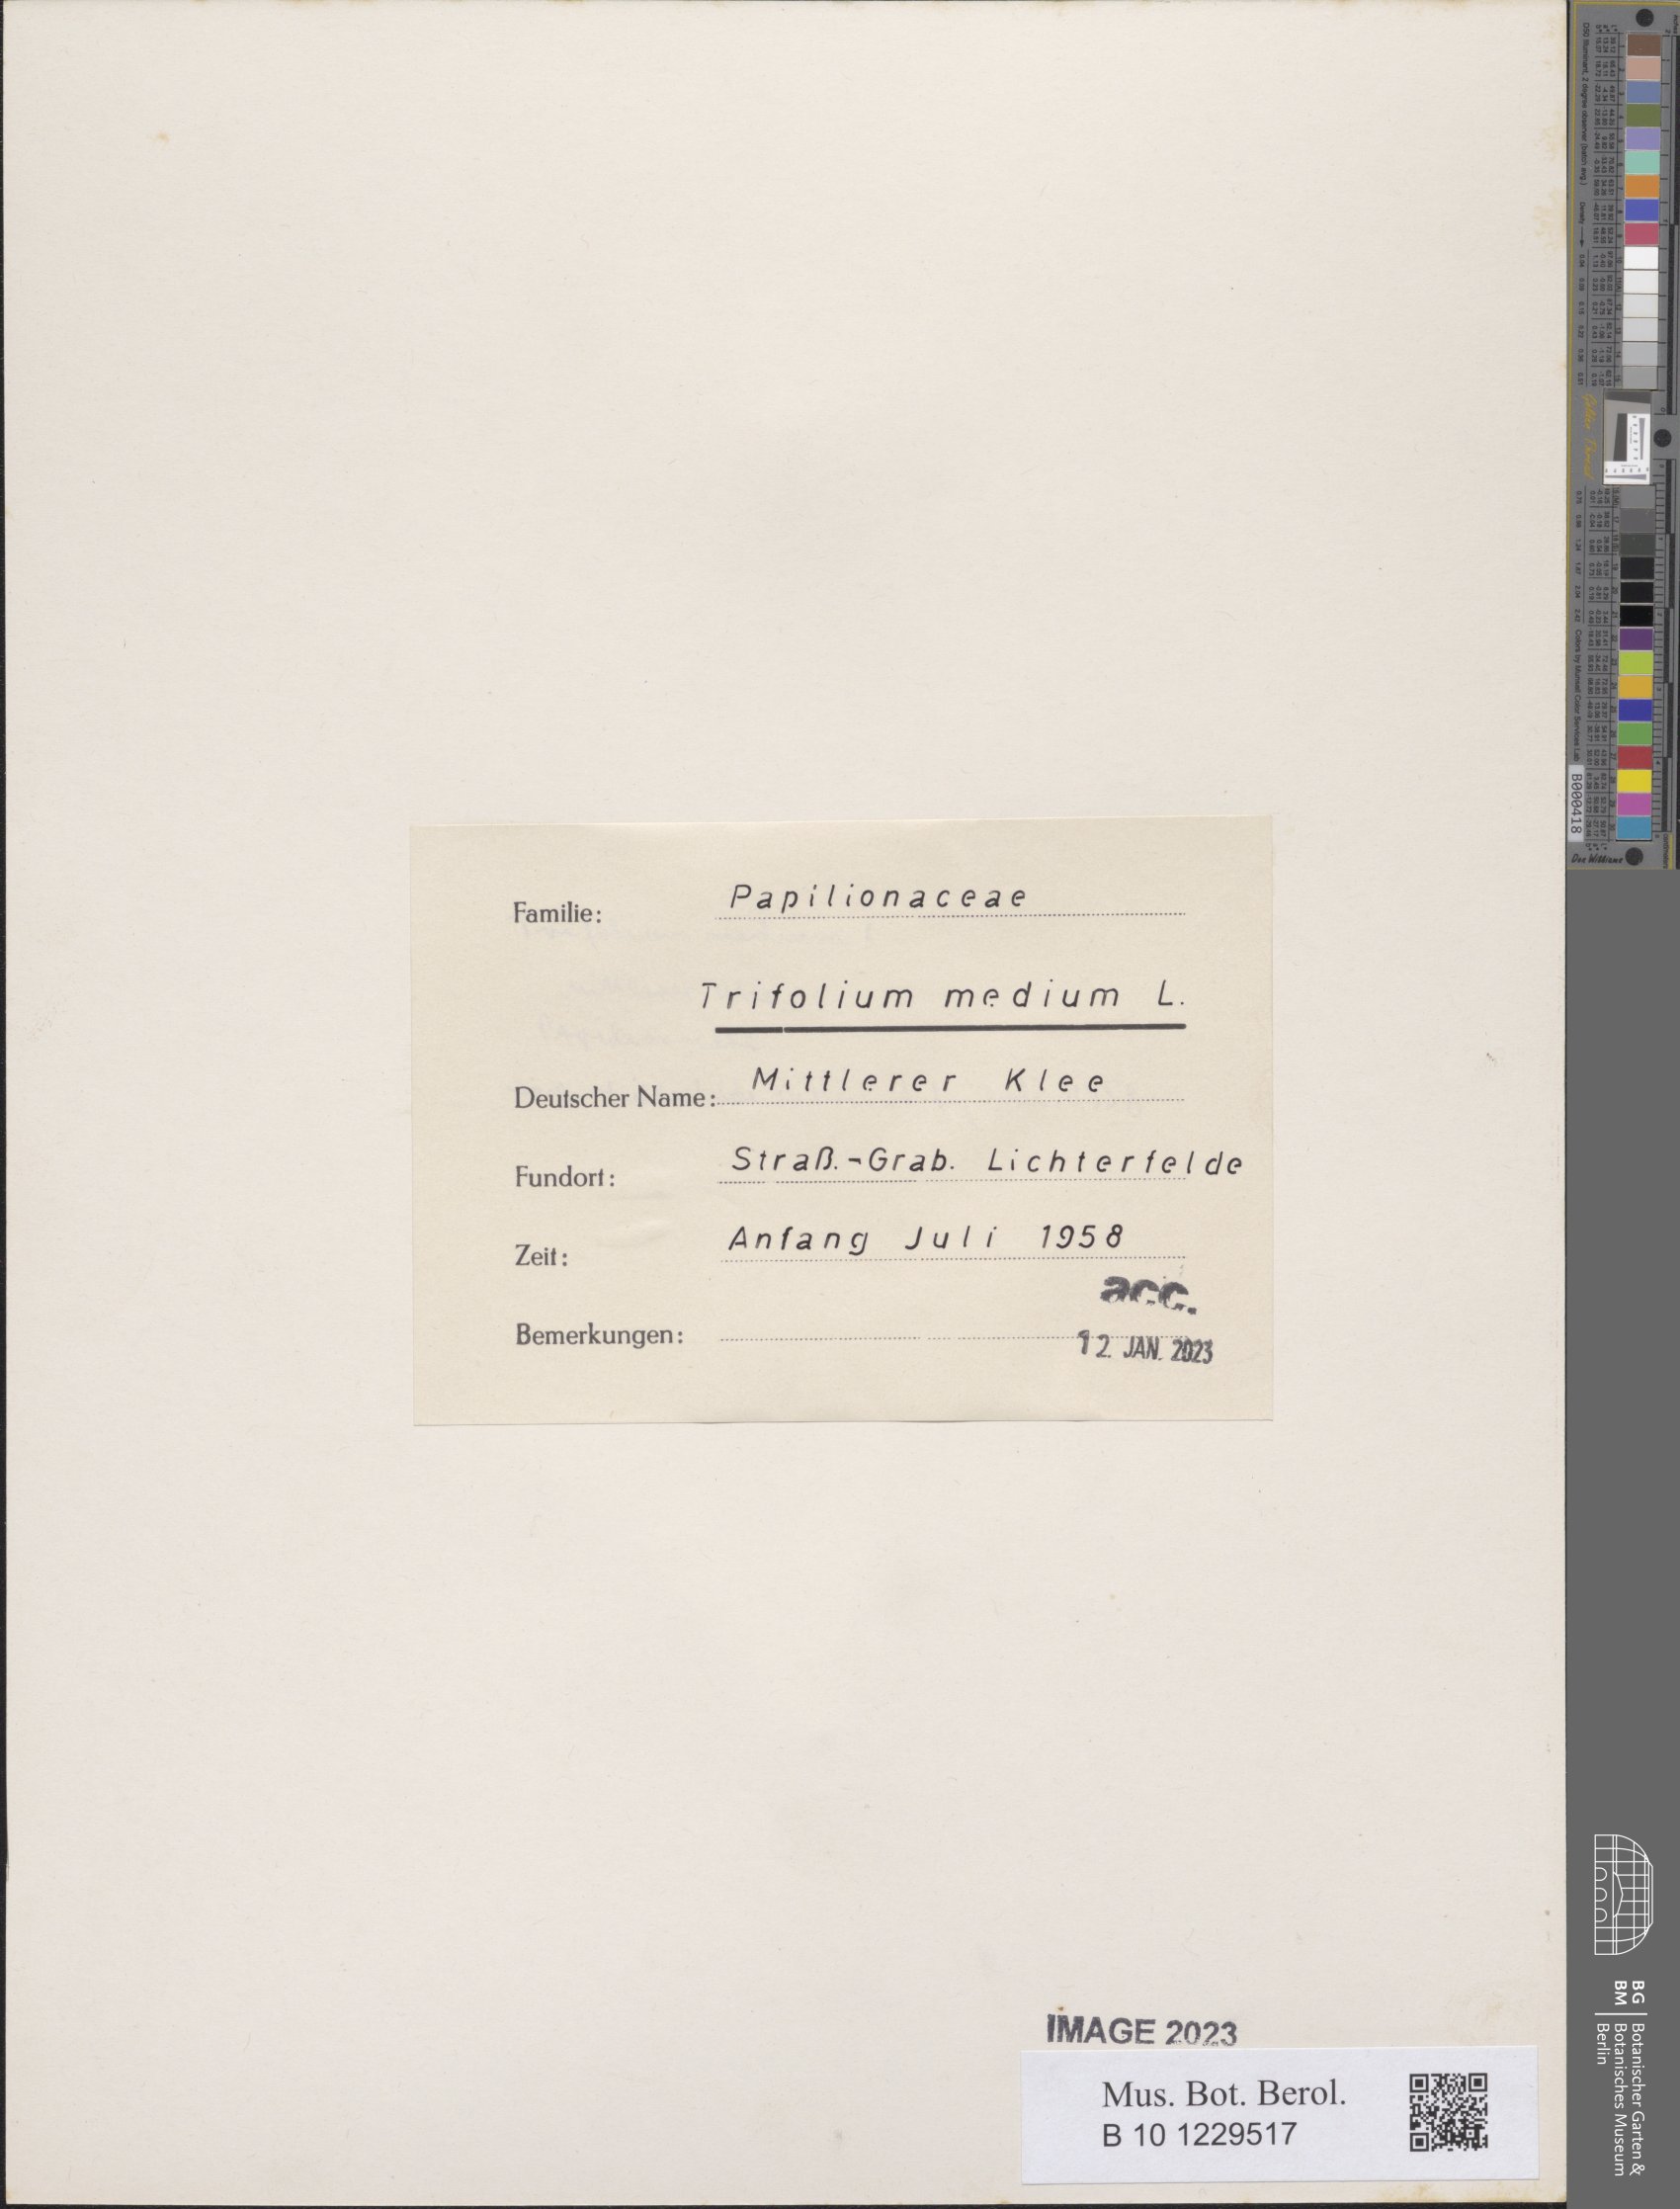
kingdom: Plantae
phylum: Tracheophyta
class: Magnoliopsida
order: Fabales
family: Fabaceae
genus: Trifolium
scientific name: Trifolium medium
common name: Zigzag clover
